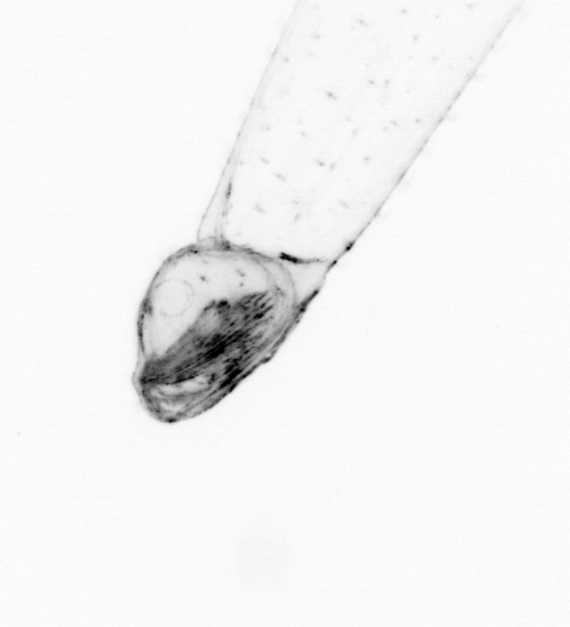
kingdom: Animalia
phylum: Chaetognatha
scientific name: Chaetognatha
